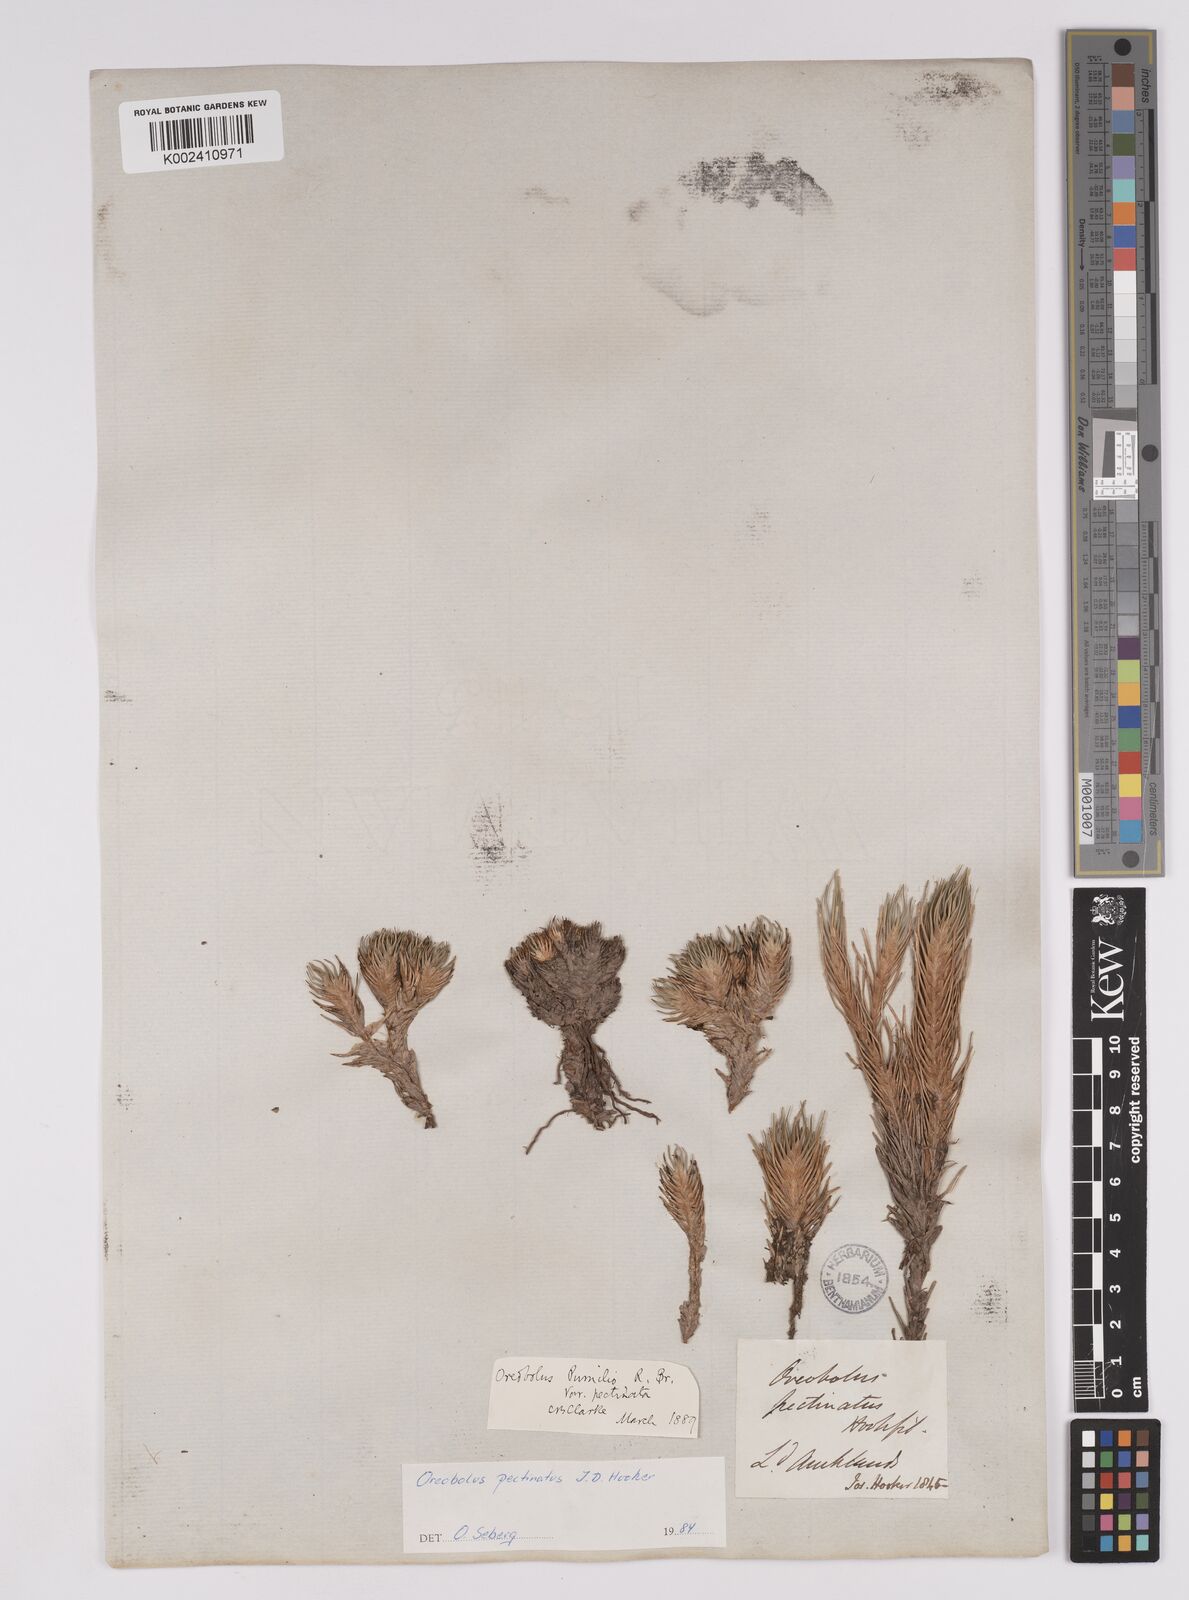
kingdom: Plantae
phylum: Tracheophyta
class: Liliopsida
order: Poales
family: Cyperaceae
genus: Oreobolus
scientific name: Oreobolus pectinatus
